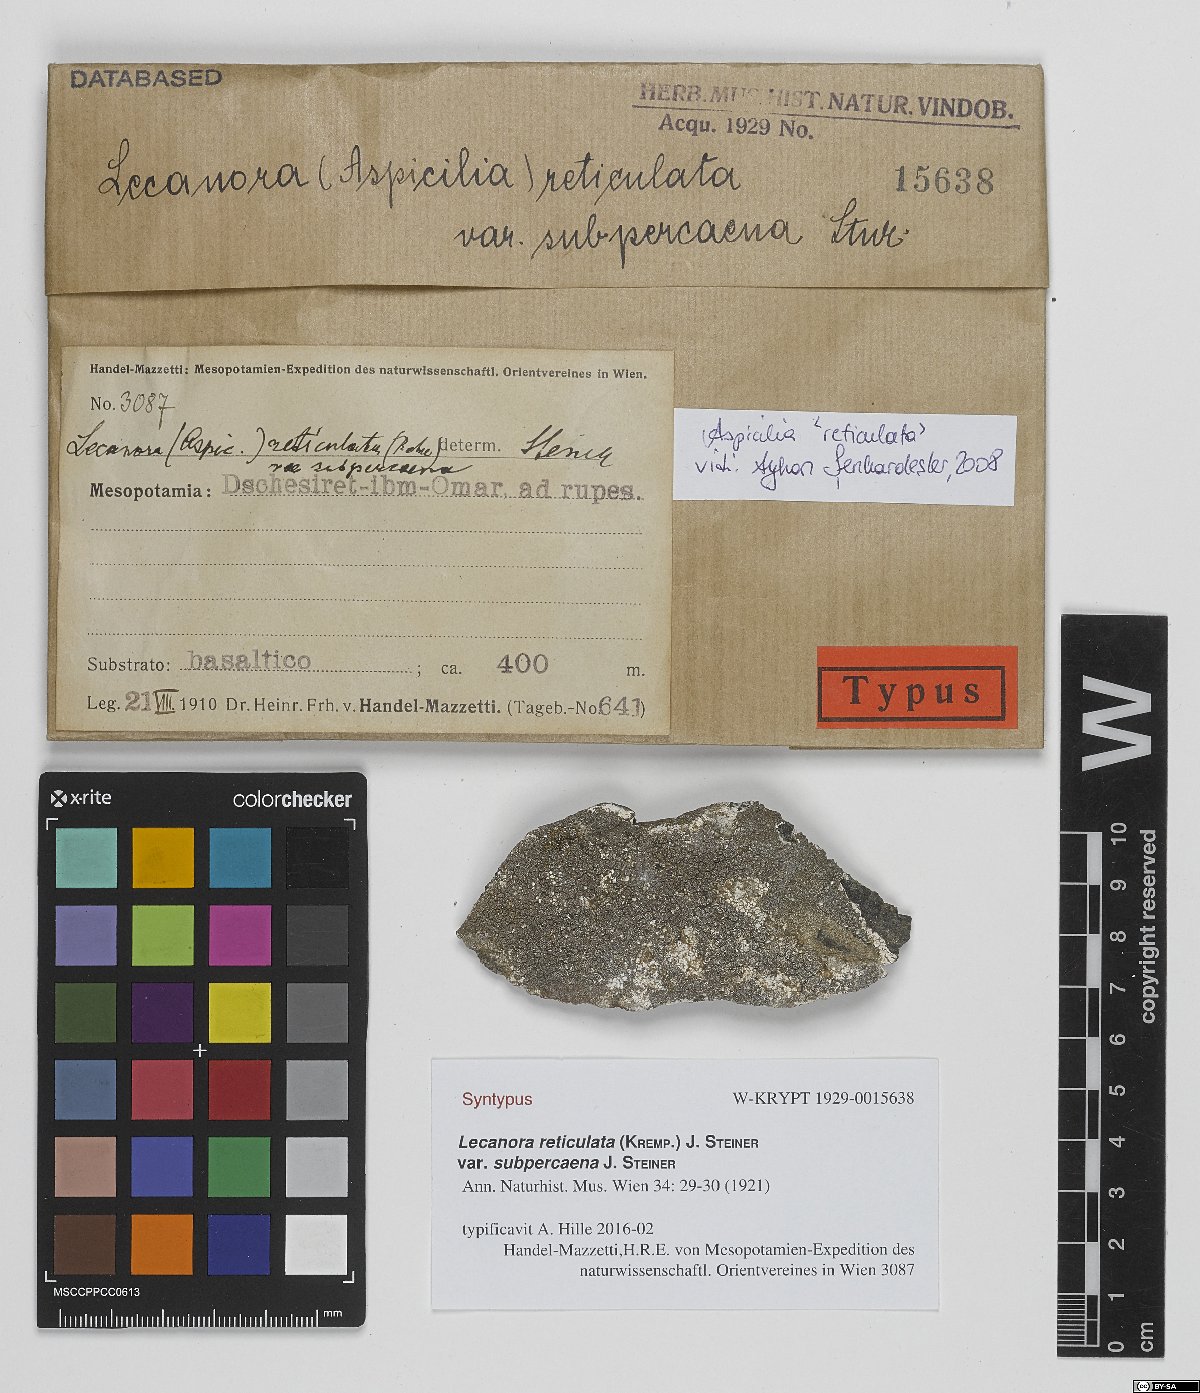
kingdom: Fungi
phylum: Ascomycota
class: Lecanoromycetes
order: Lecanorales
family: Lecanoraceae
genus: Lecanora
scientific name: Lecanora reticulata
